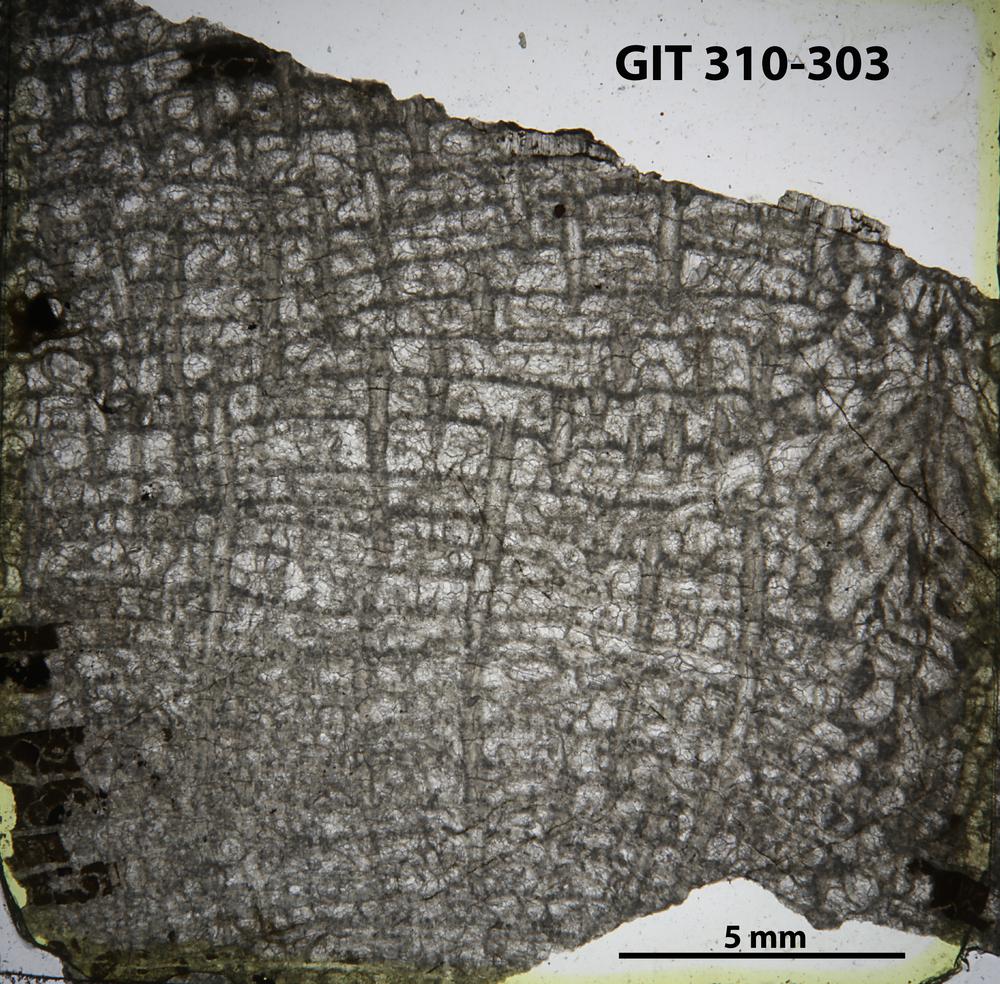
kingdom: Animalia
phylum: Cnidaria
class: Anthozoa
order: Heliolitina
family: Heliolitidae
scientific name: Heliolitidae
